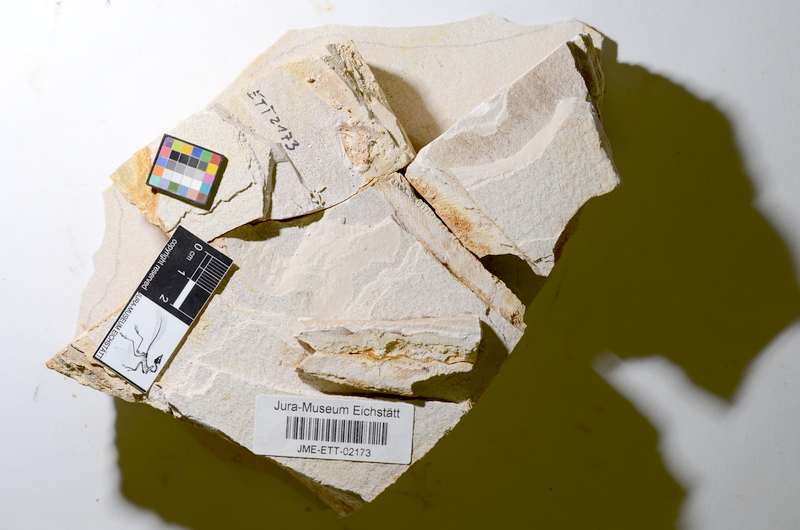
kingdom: Animalia
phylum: Chordata
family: Ascalaboidae
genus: Ebertichthys
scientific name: Ebertichthys ettlingensis
